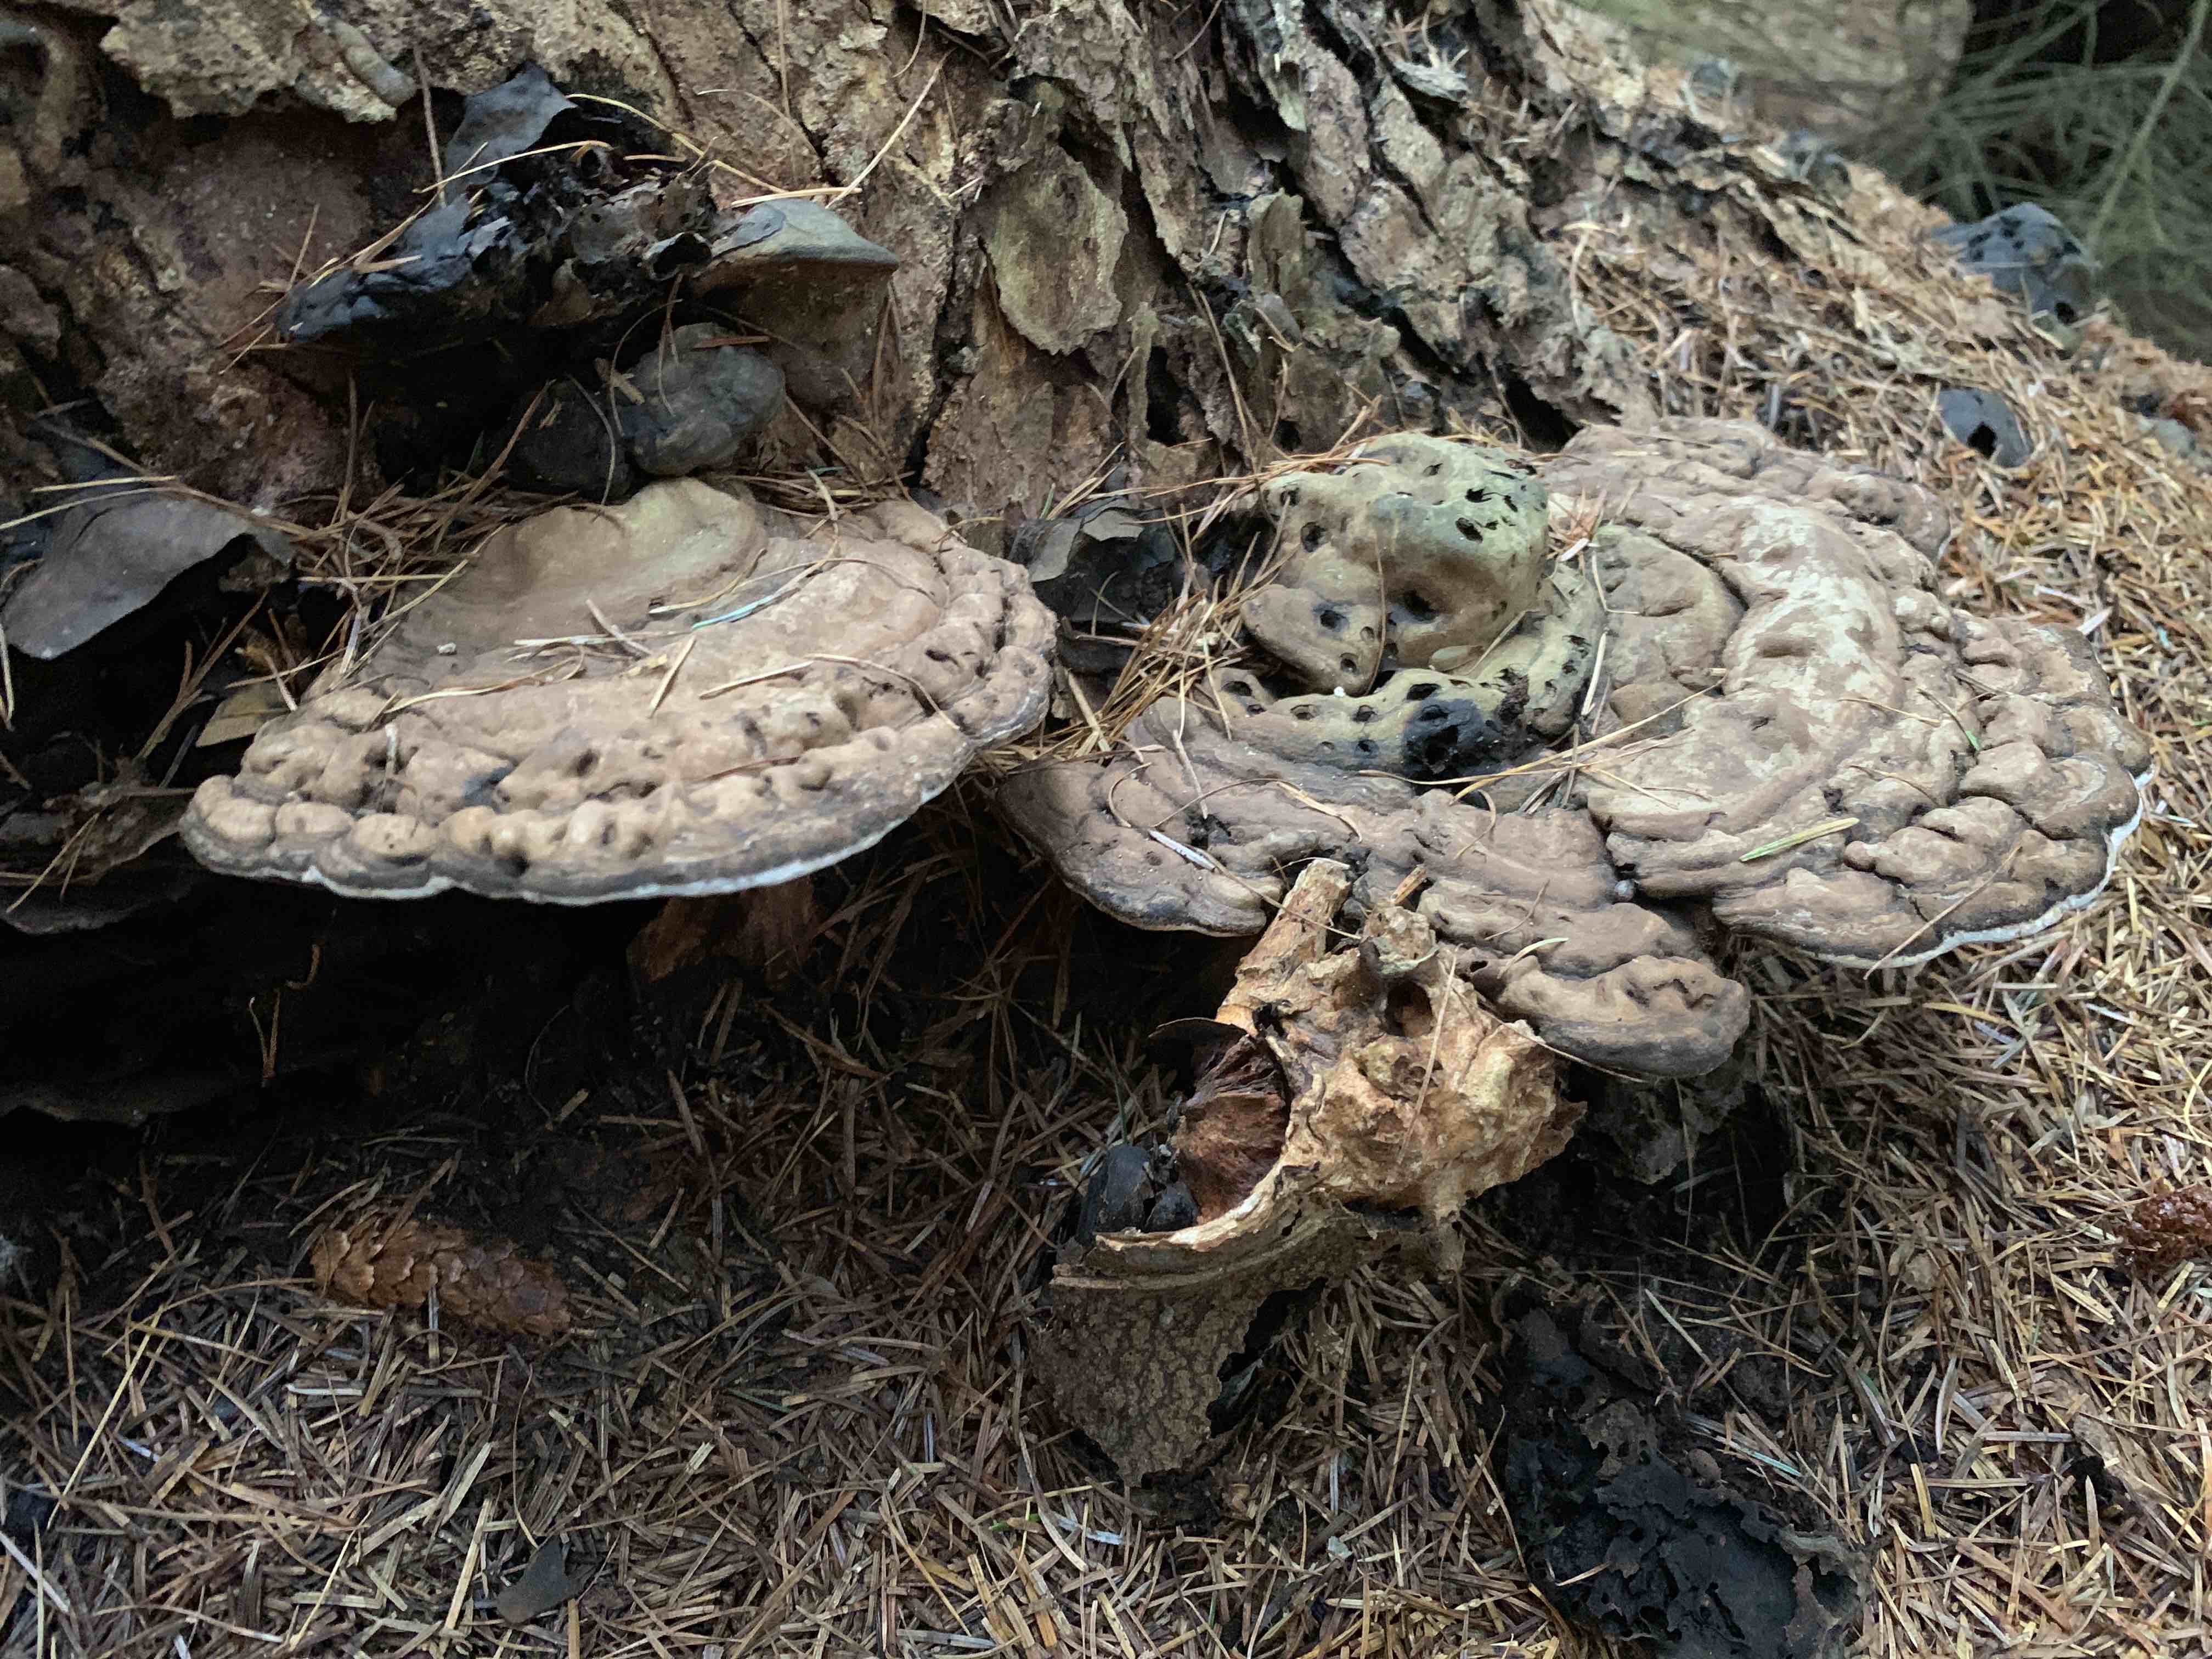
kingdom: Fungi
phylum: Basidiomycota
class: Agaricomycetes
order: Polyporales
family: Polyporaceae
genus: Ganoderma
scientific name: Ganoderma applanatum
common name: flad lakporesvamp
